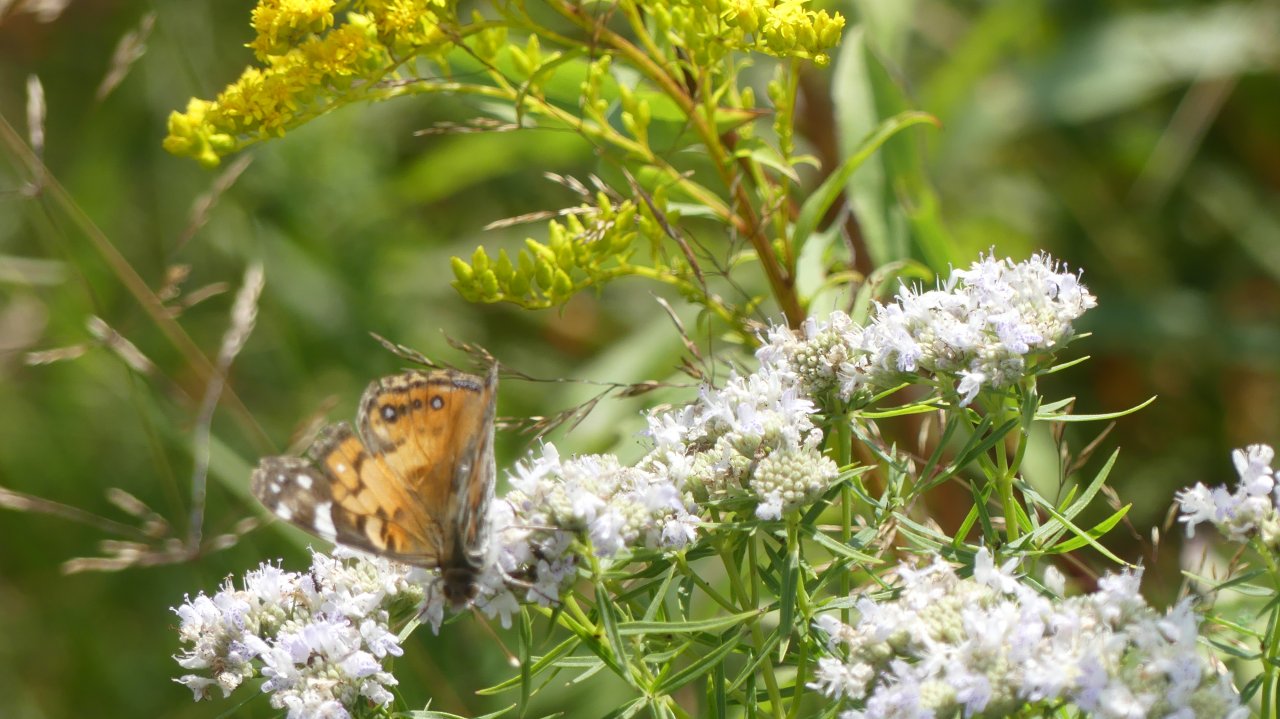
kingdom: Animalia
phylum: Arthropoda
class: Insecta
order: Lepidoptera
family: Nymphalidae
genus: Vanessa
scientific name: Vanessa virginiensis
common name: American Lady
